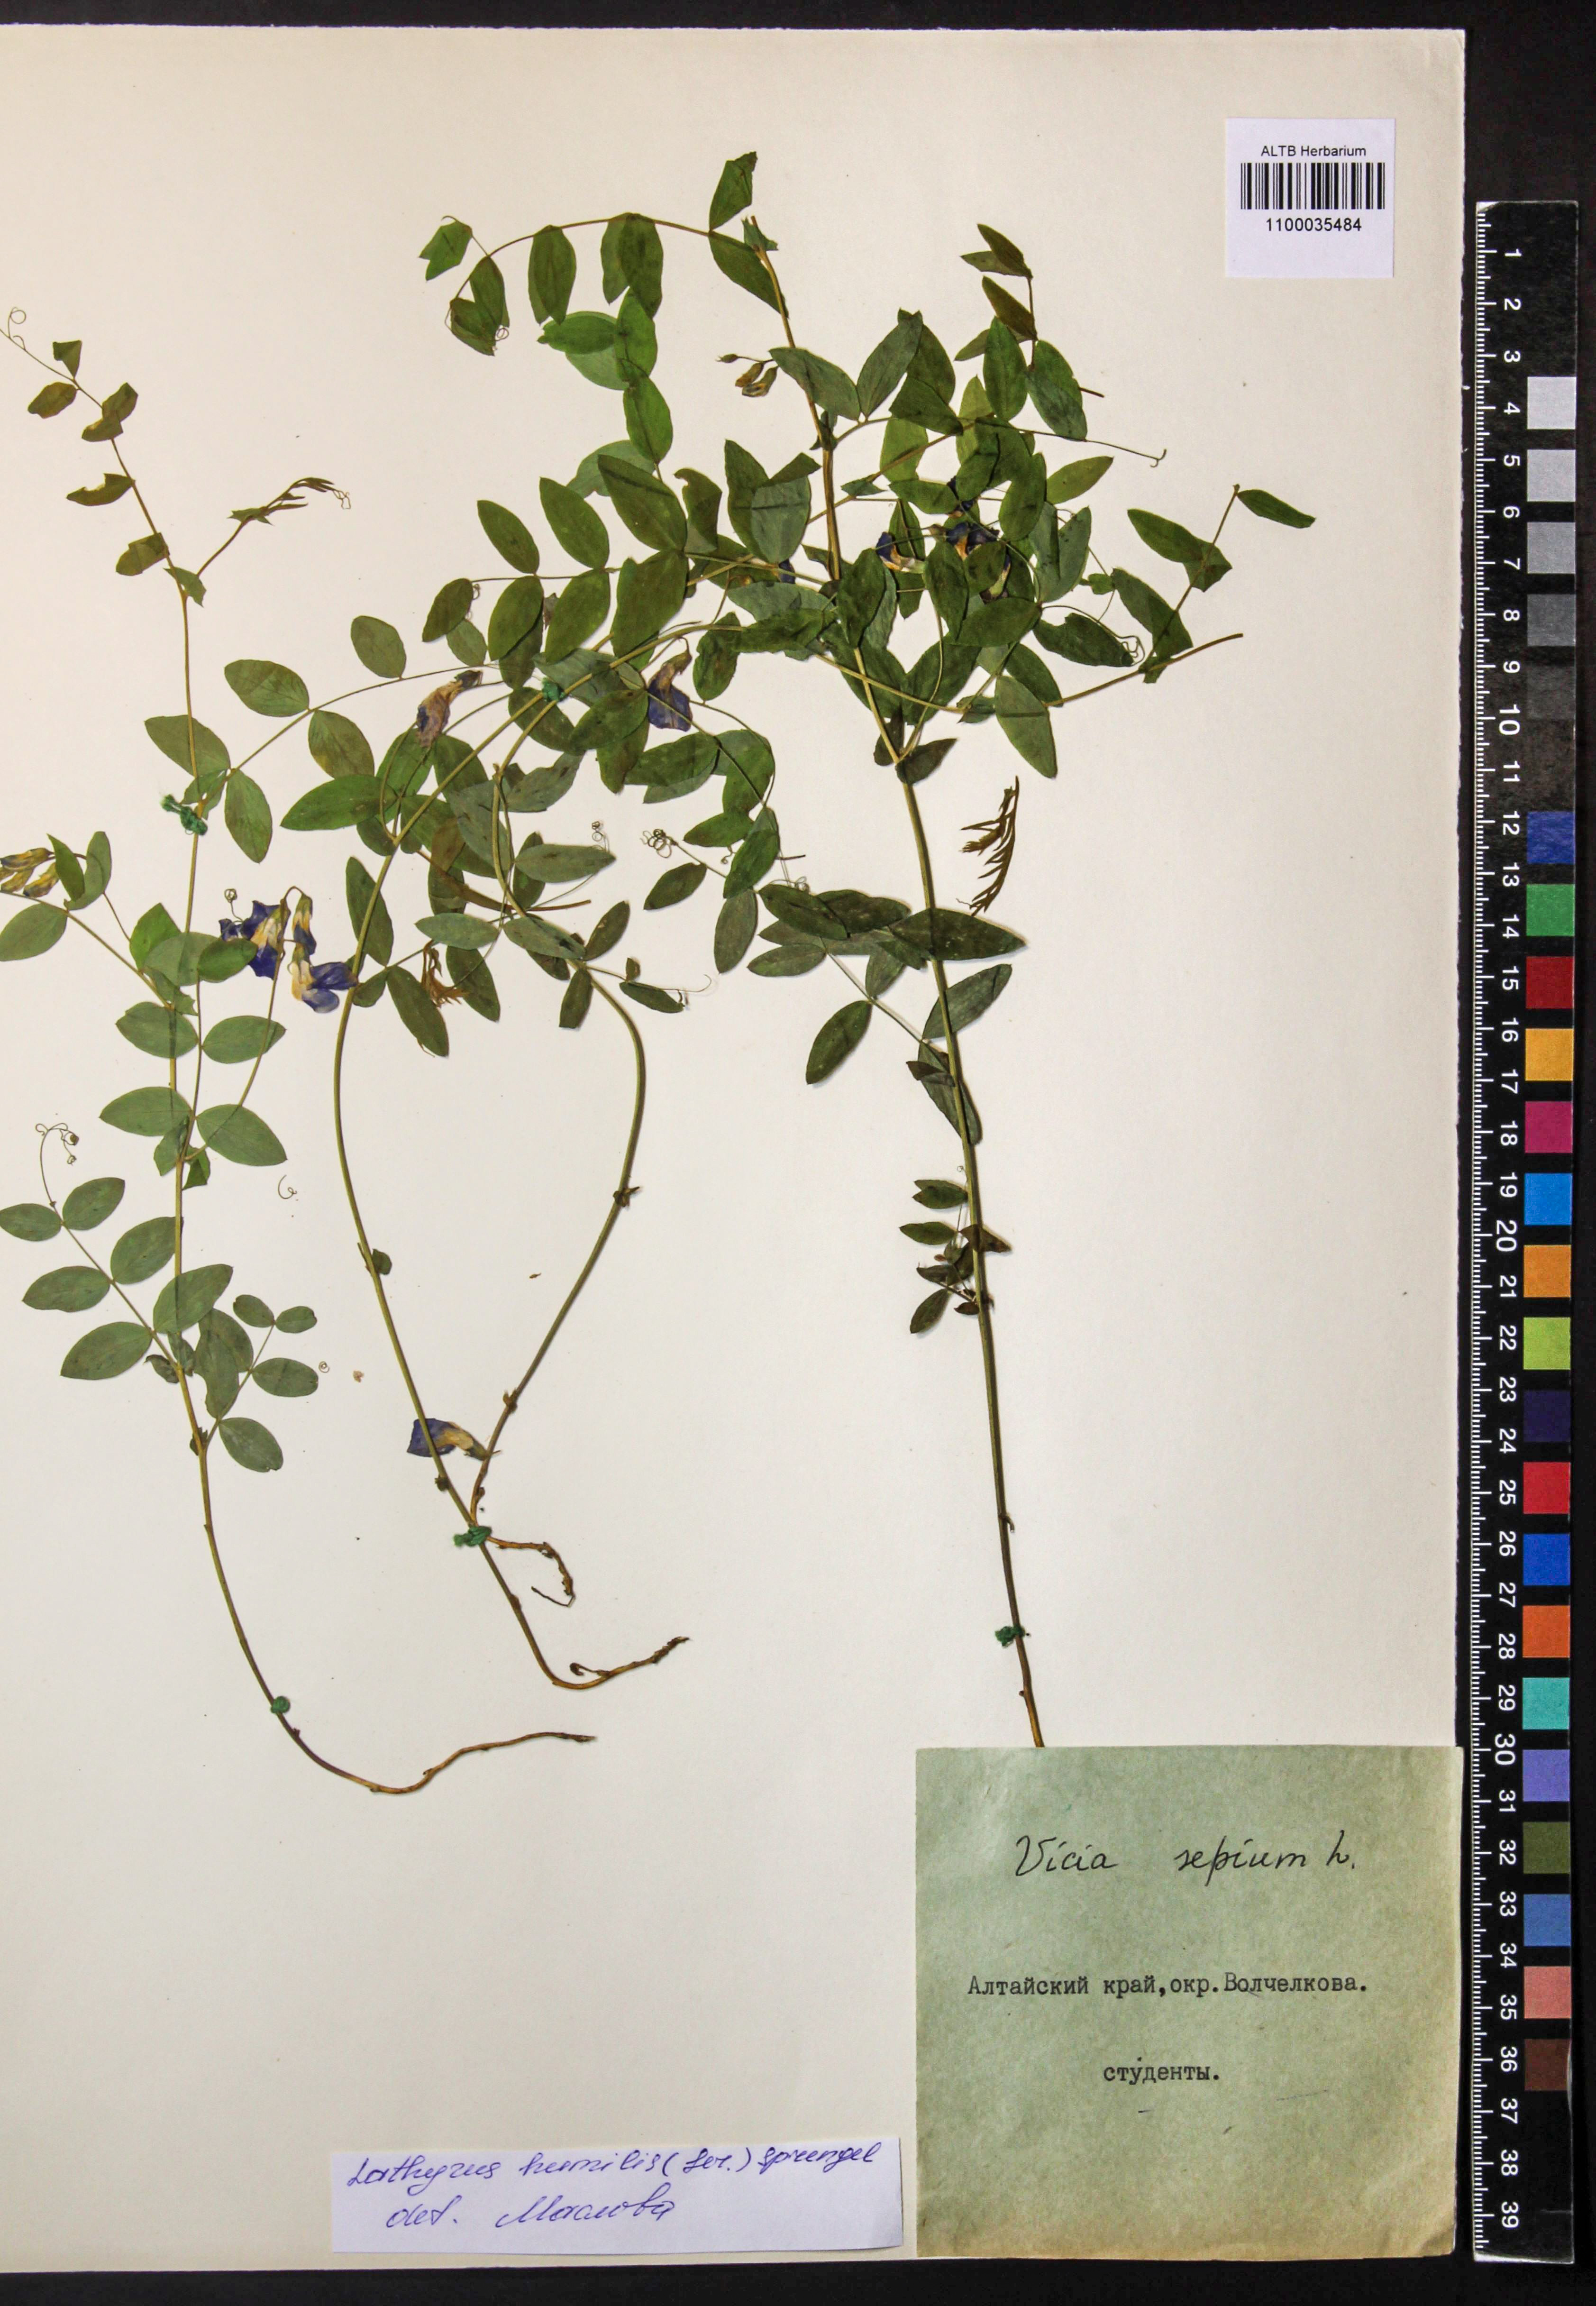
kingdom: Plantae
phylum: Tracheophyta
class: Magnoliopsida
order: Fabales
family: Fabaceae
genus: Lathyrus
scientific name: Lathyrus humilis
